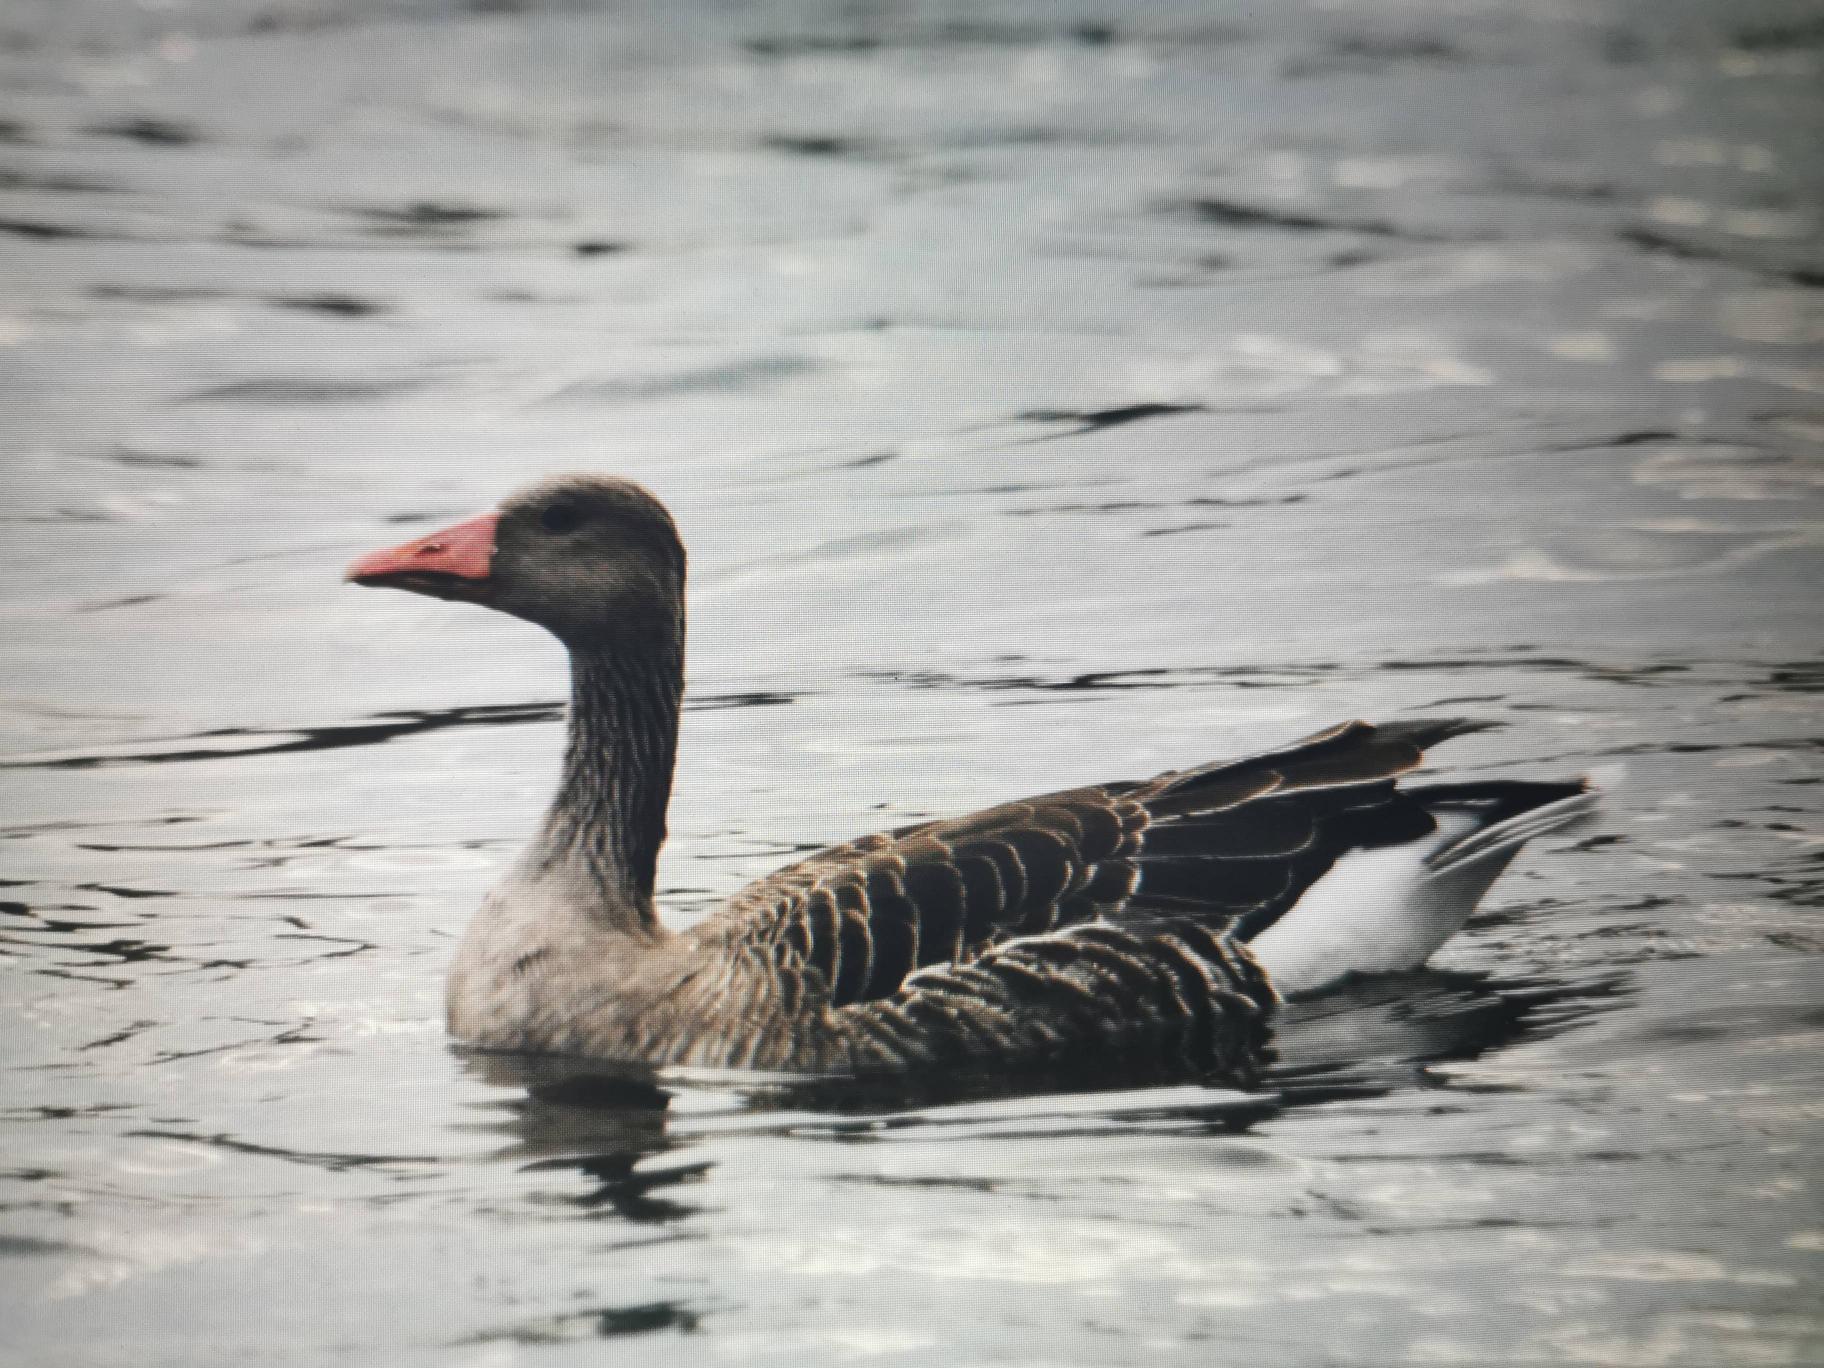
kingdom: Animalia
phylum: Chordata
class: Aves
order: Anseriformes
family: Anatidae
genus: Anser
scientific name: Anser anser
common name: Grågås
